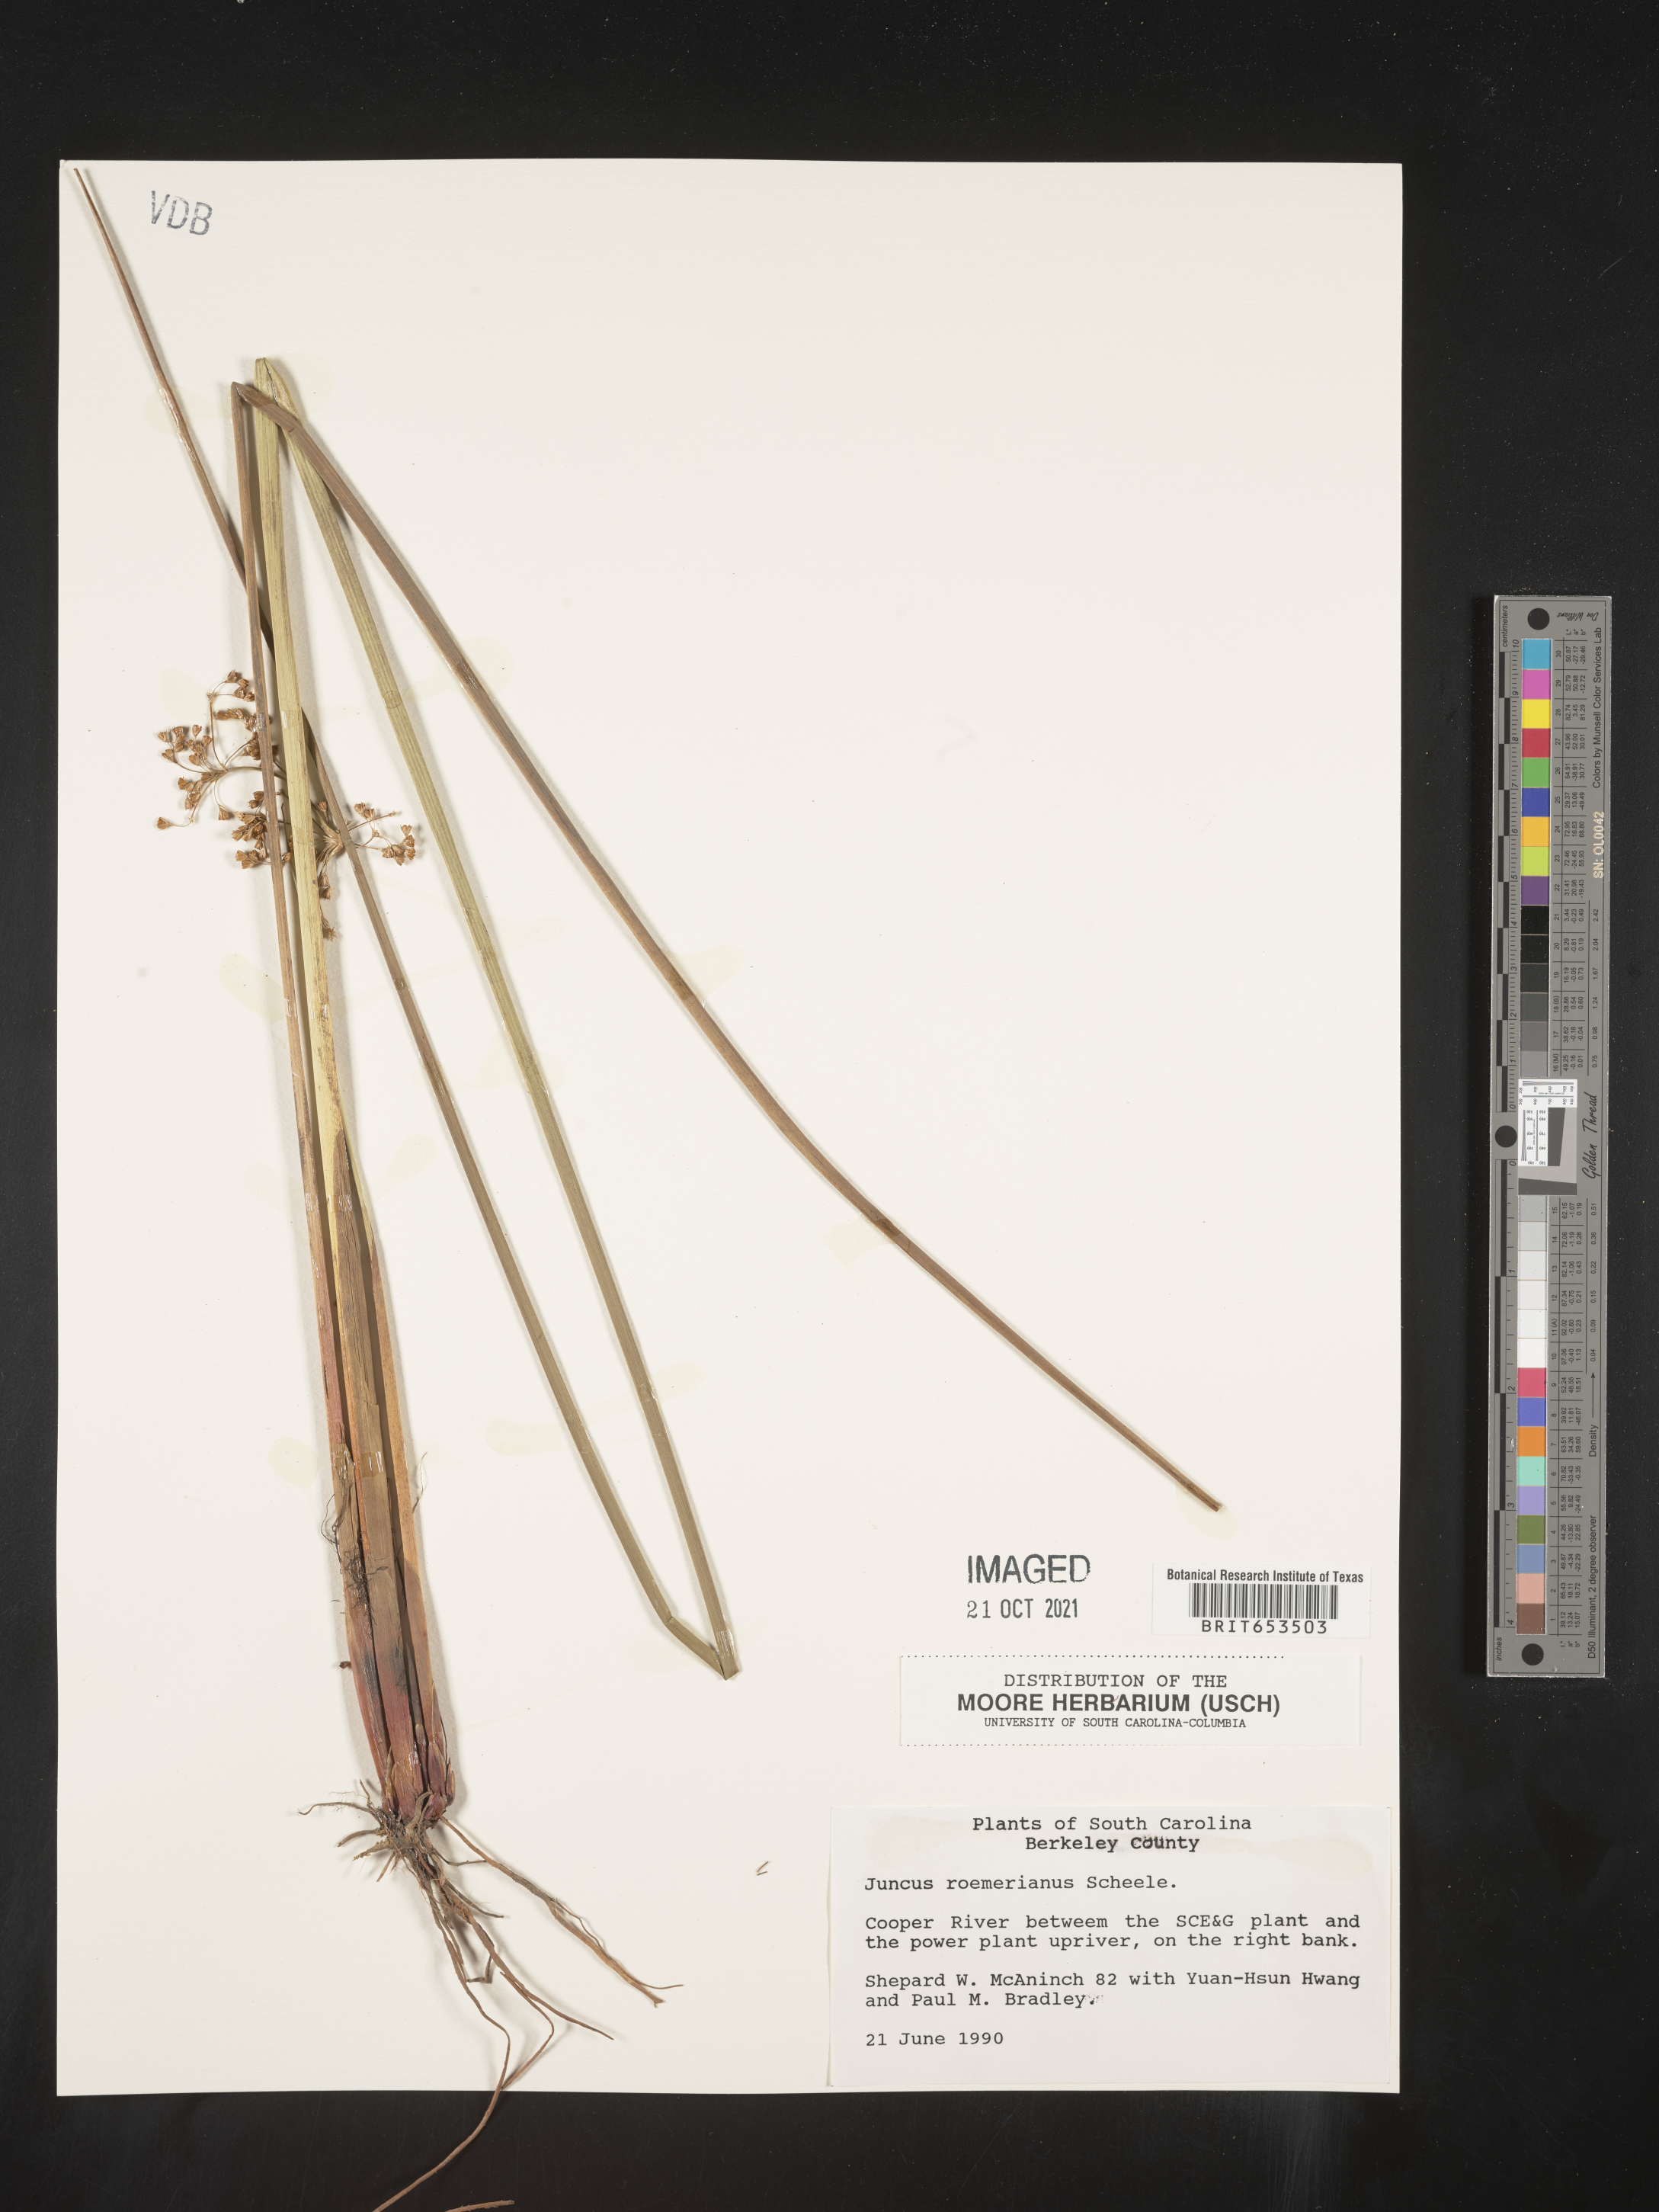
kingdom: Plantae
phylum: Tracheophyta
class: Liliopsida
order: Poales
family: Juncaceae
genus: Juncus
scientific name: Juncus roemerianus
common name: Roemer's rush
